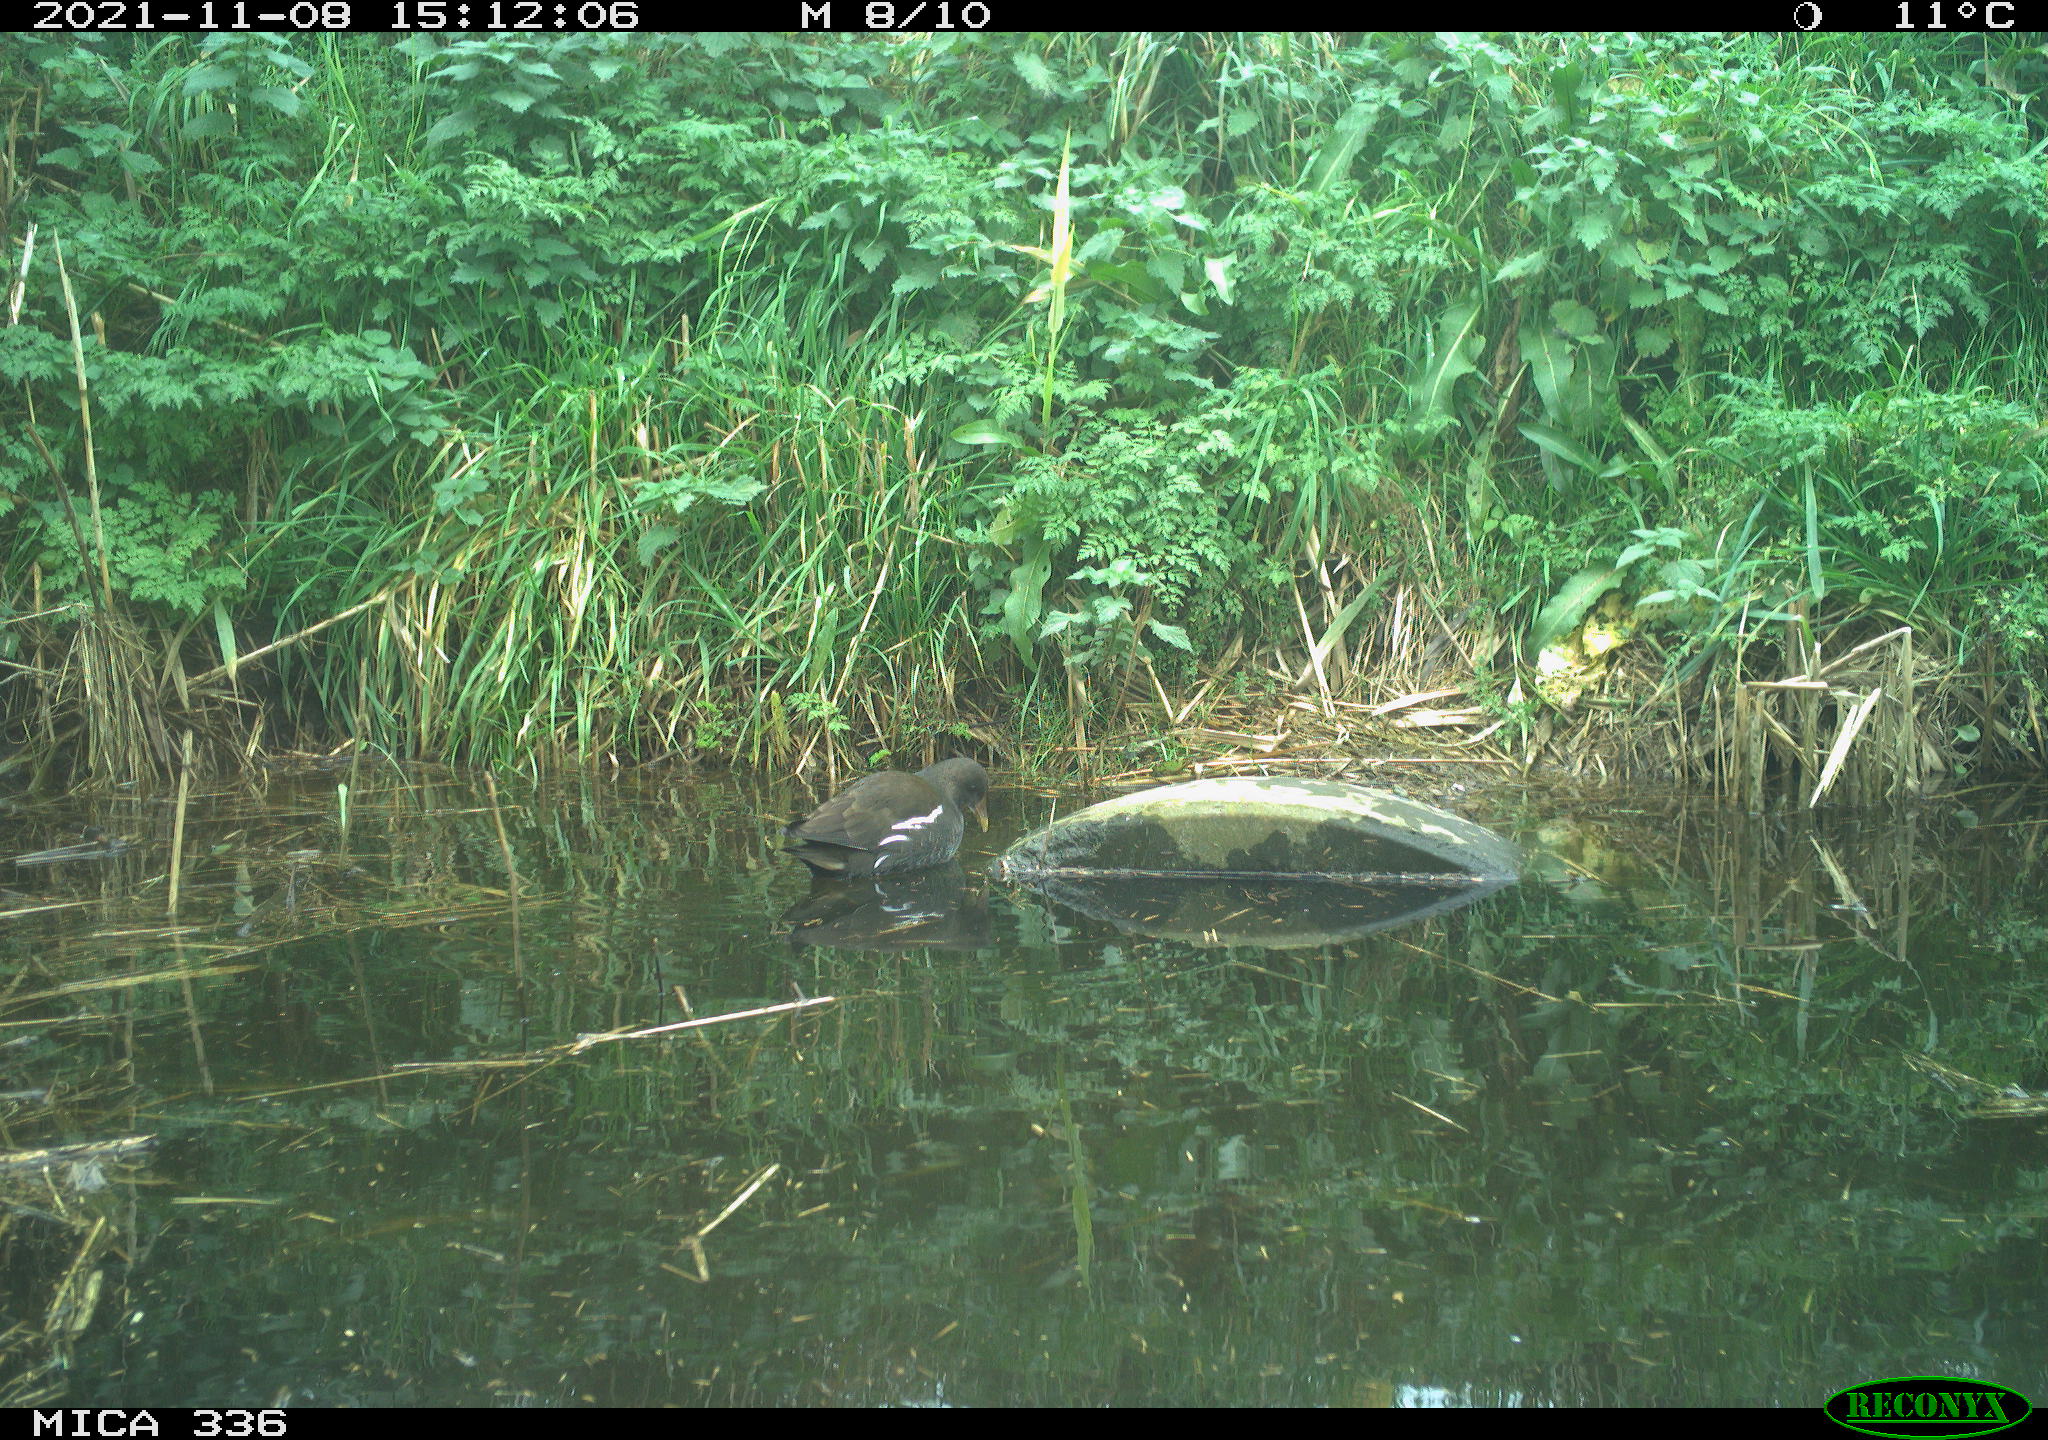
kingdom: Animalia
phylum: Chordata
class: Aves
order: Gruiformes
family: Rallidae
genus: Gallinula
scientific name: Gallinula chloropus
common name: Common moorhen
